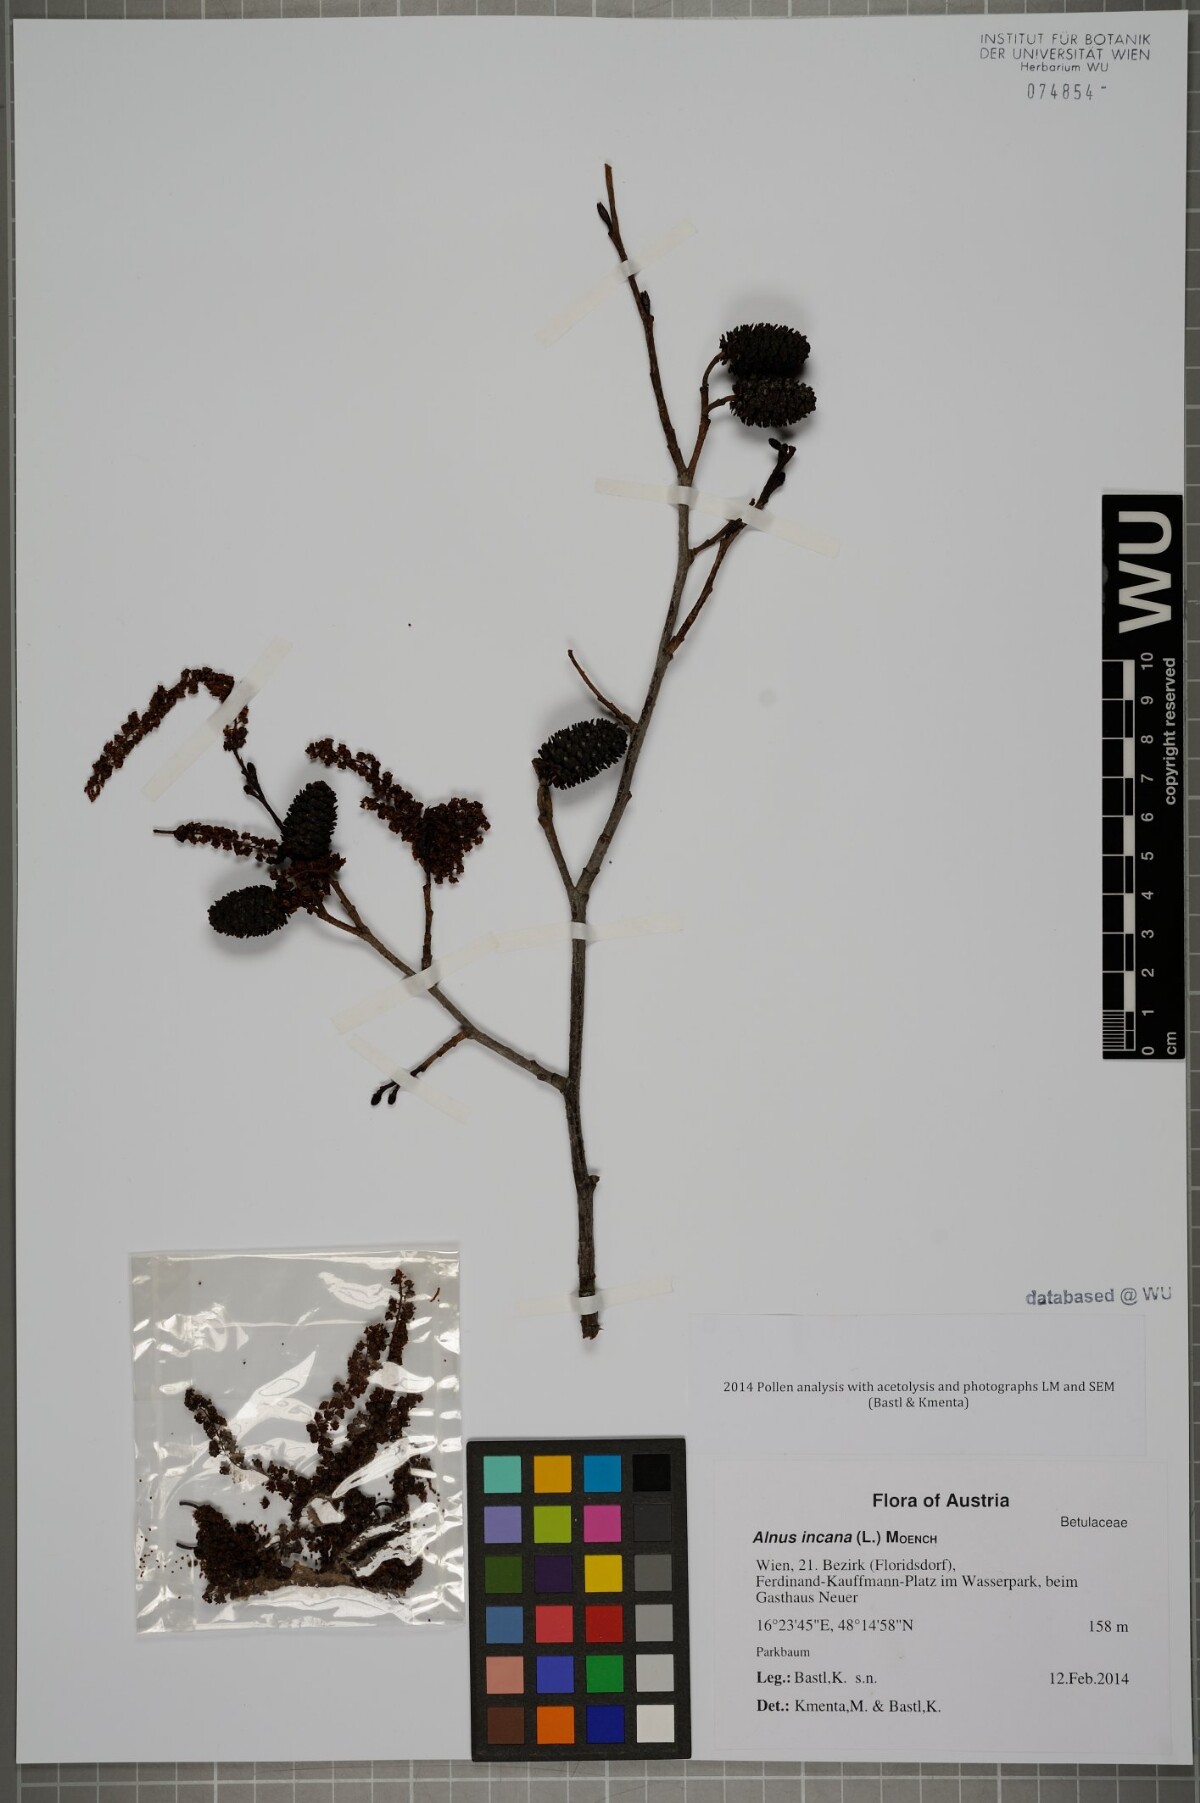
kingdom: Plantae
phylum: Tracheophyta
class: Magnoliopsida
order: Fagales
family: Betulaceae
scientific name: Betulaceae
